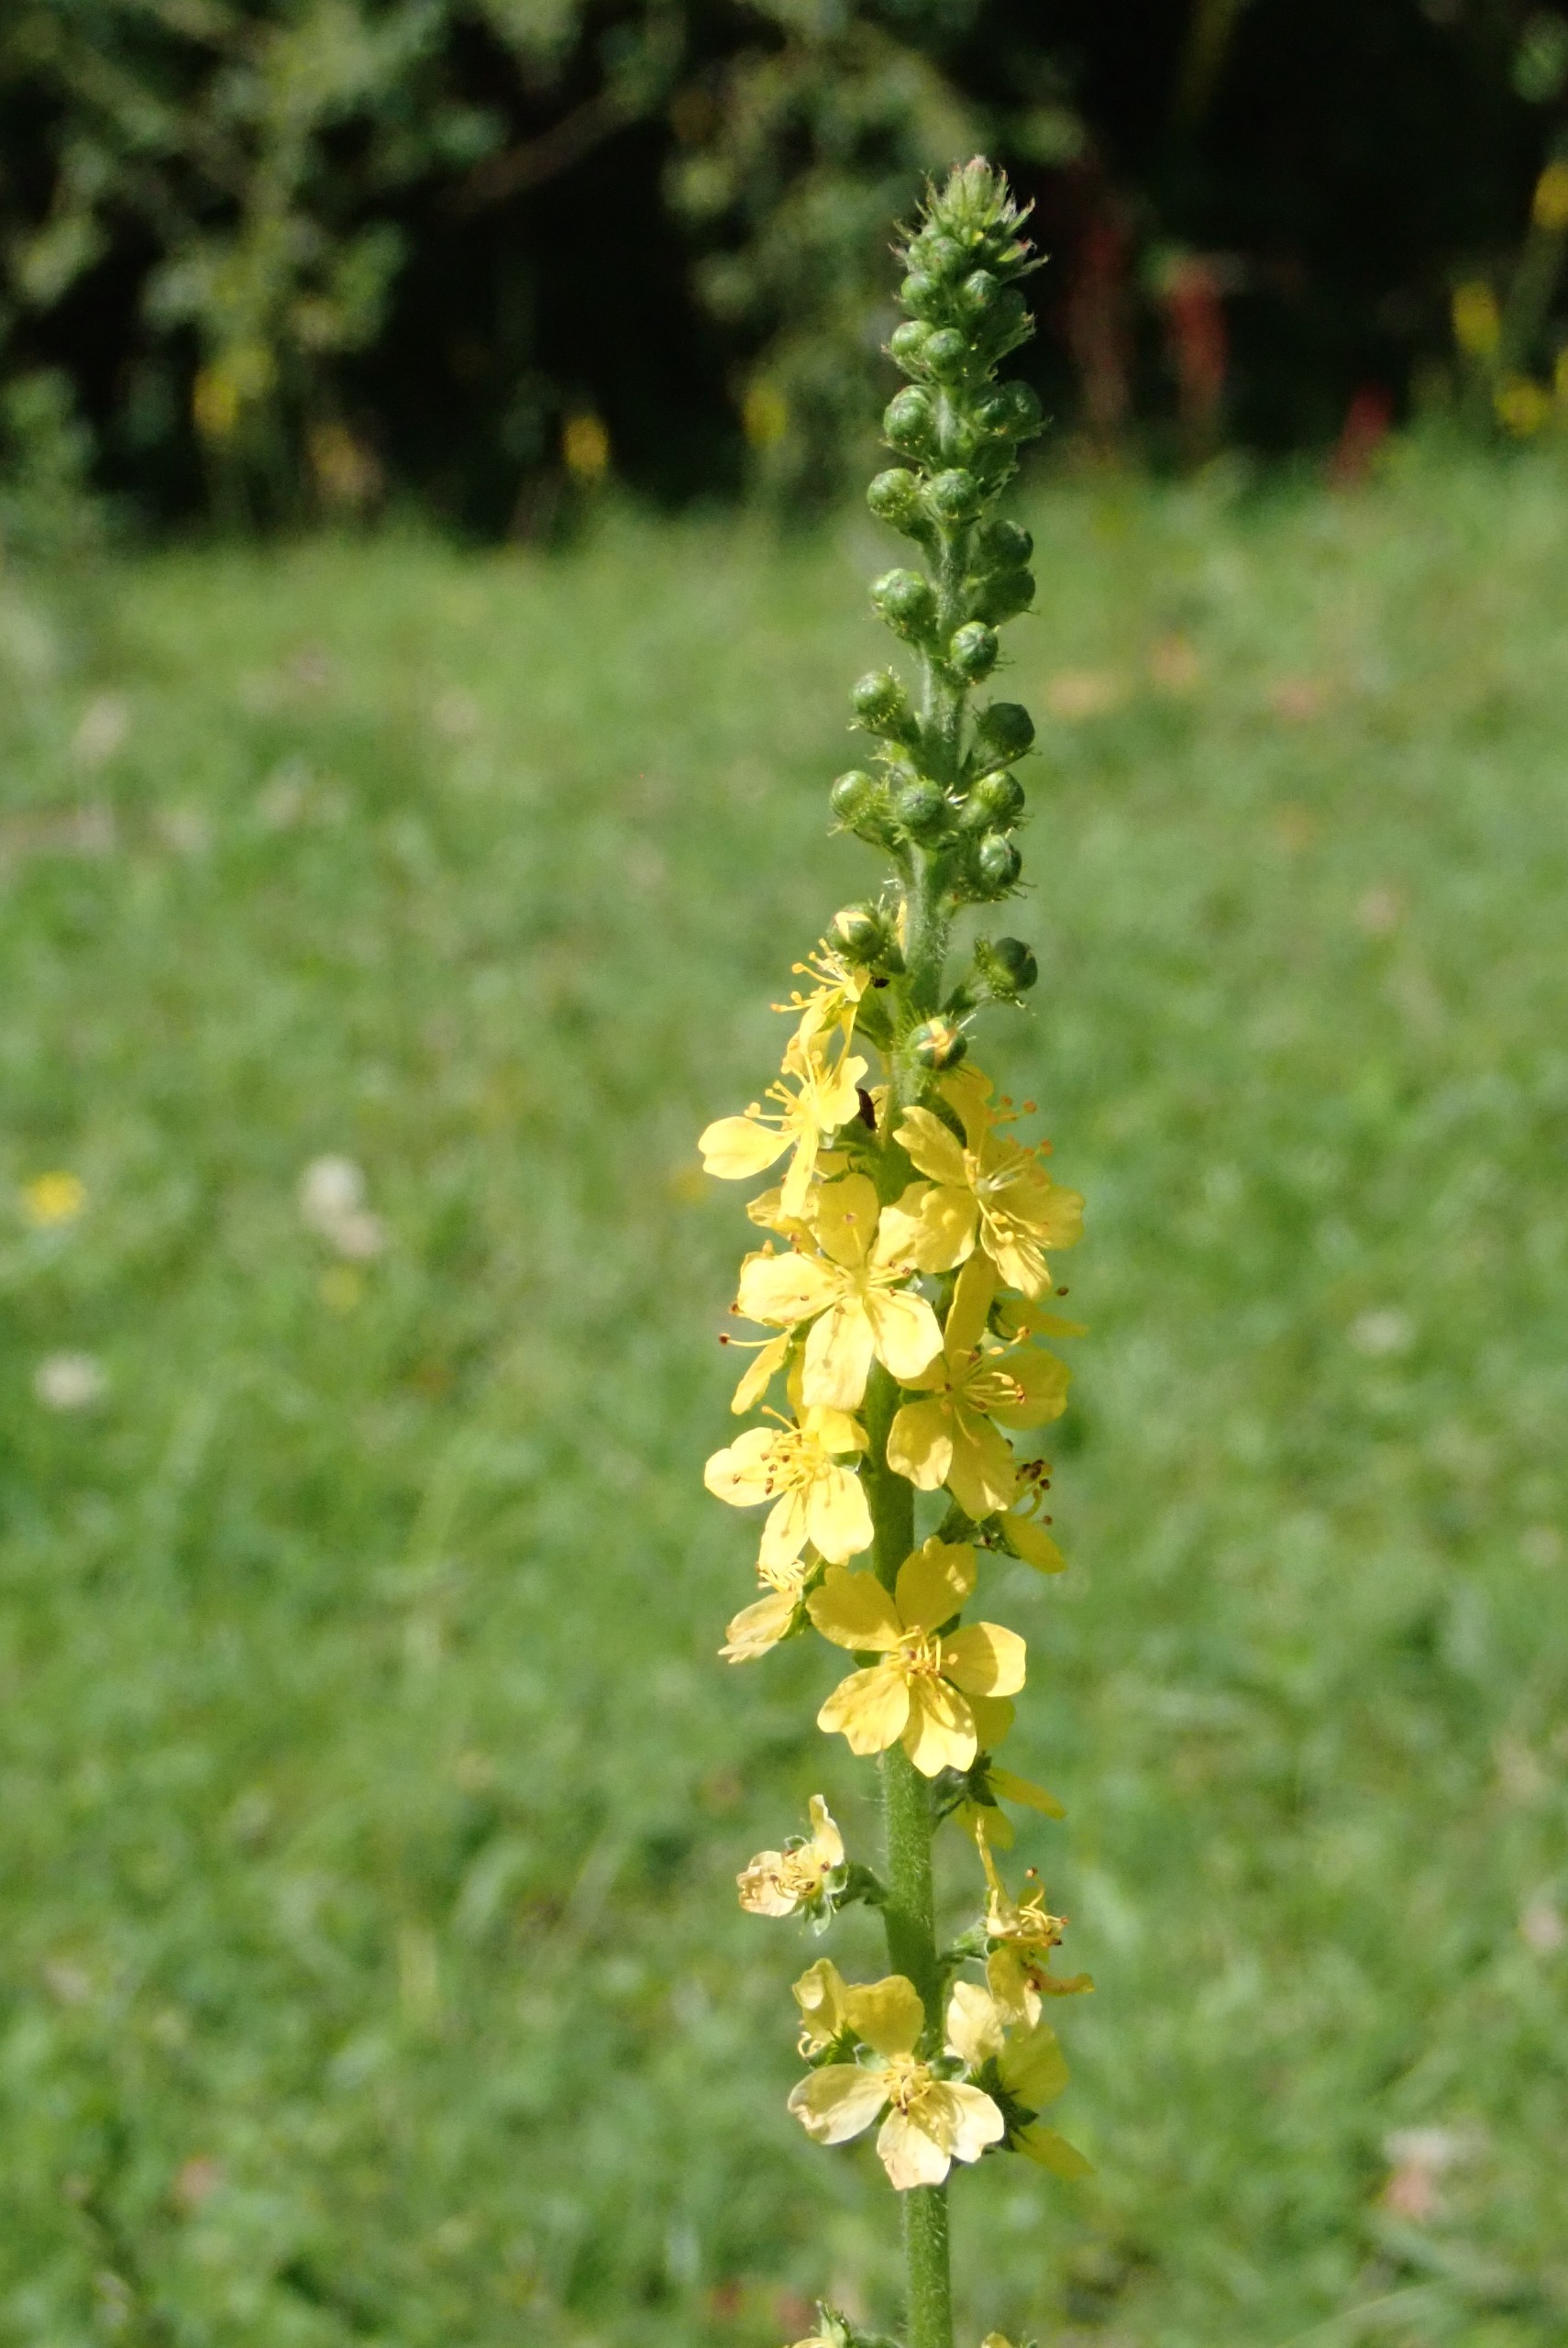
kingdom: Plantae
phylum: Tracheophyta
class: Magnoliopsida
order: Rosales
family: Rosaceae
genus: Agrimonia
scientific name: Agrimonia eupatoria
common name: Almindelig agermåne
